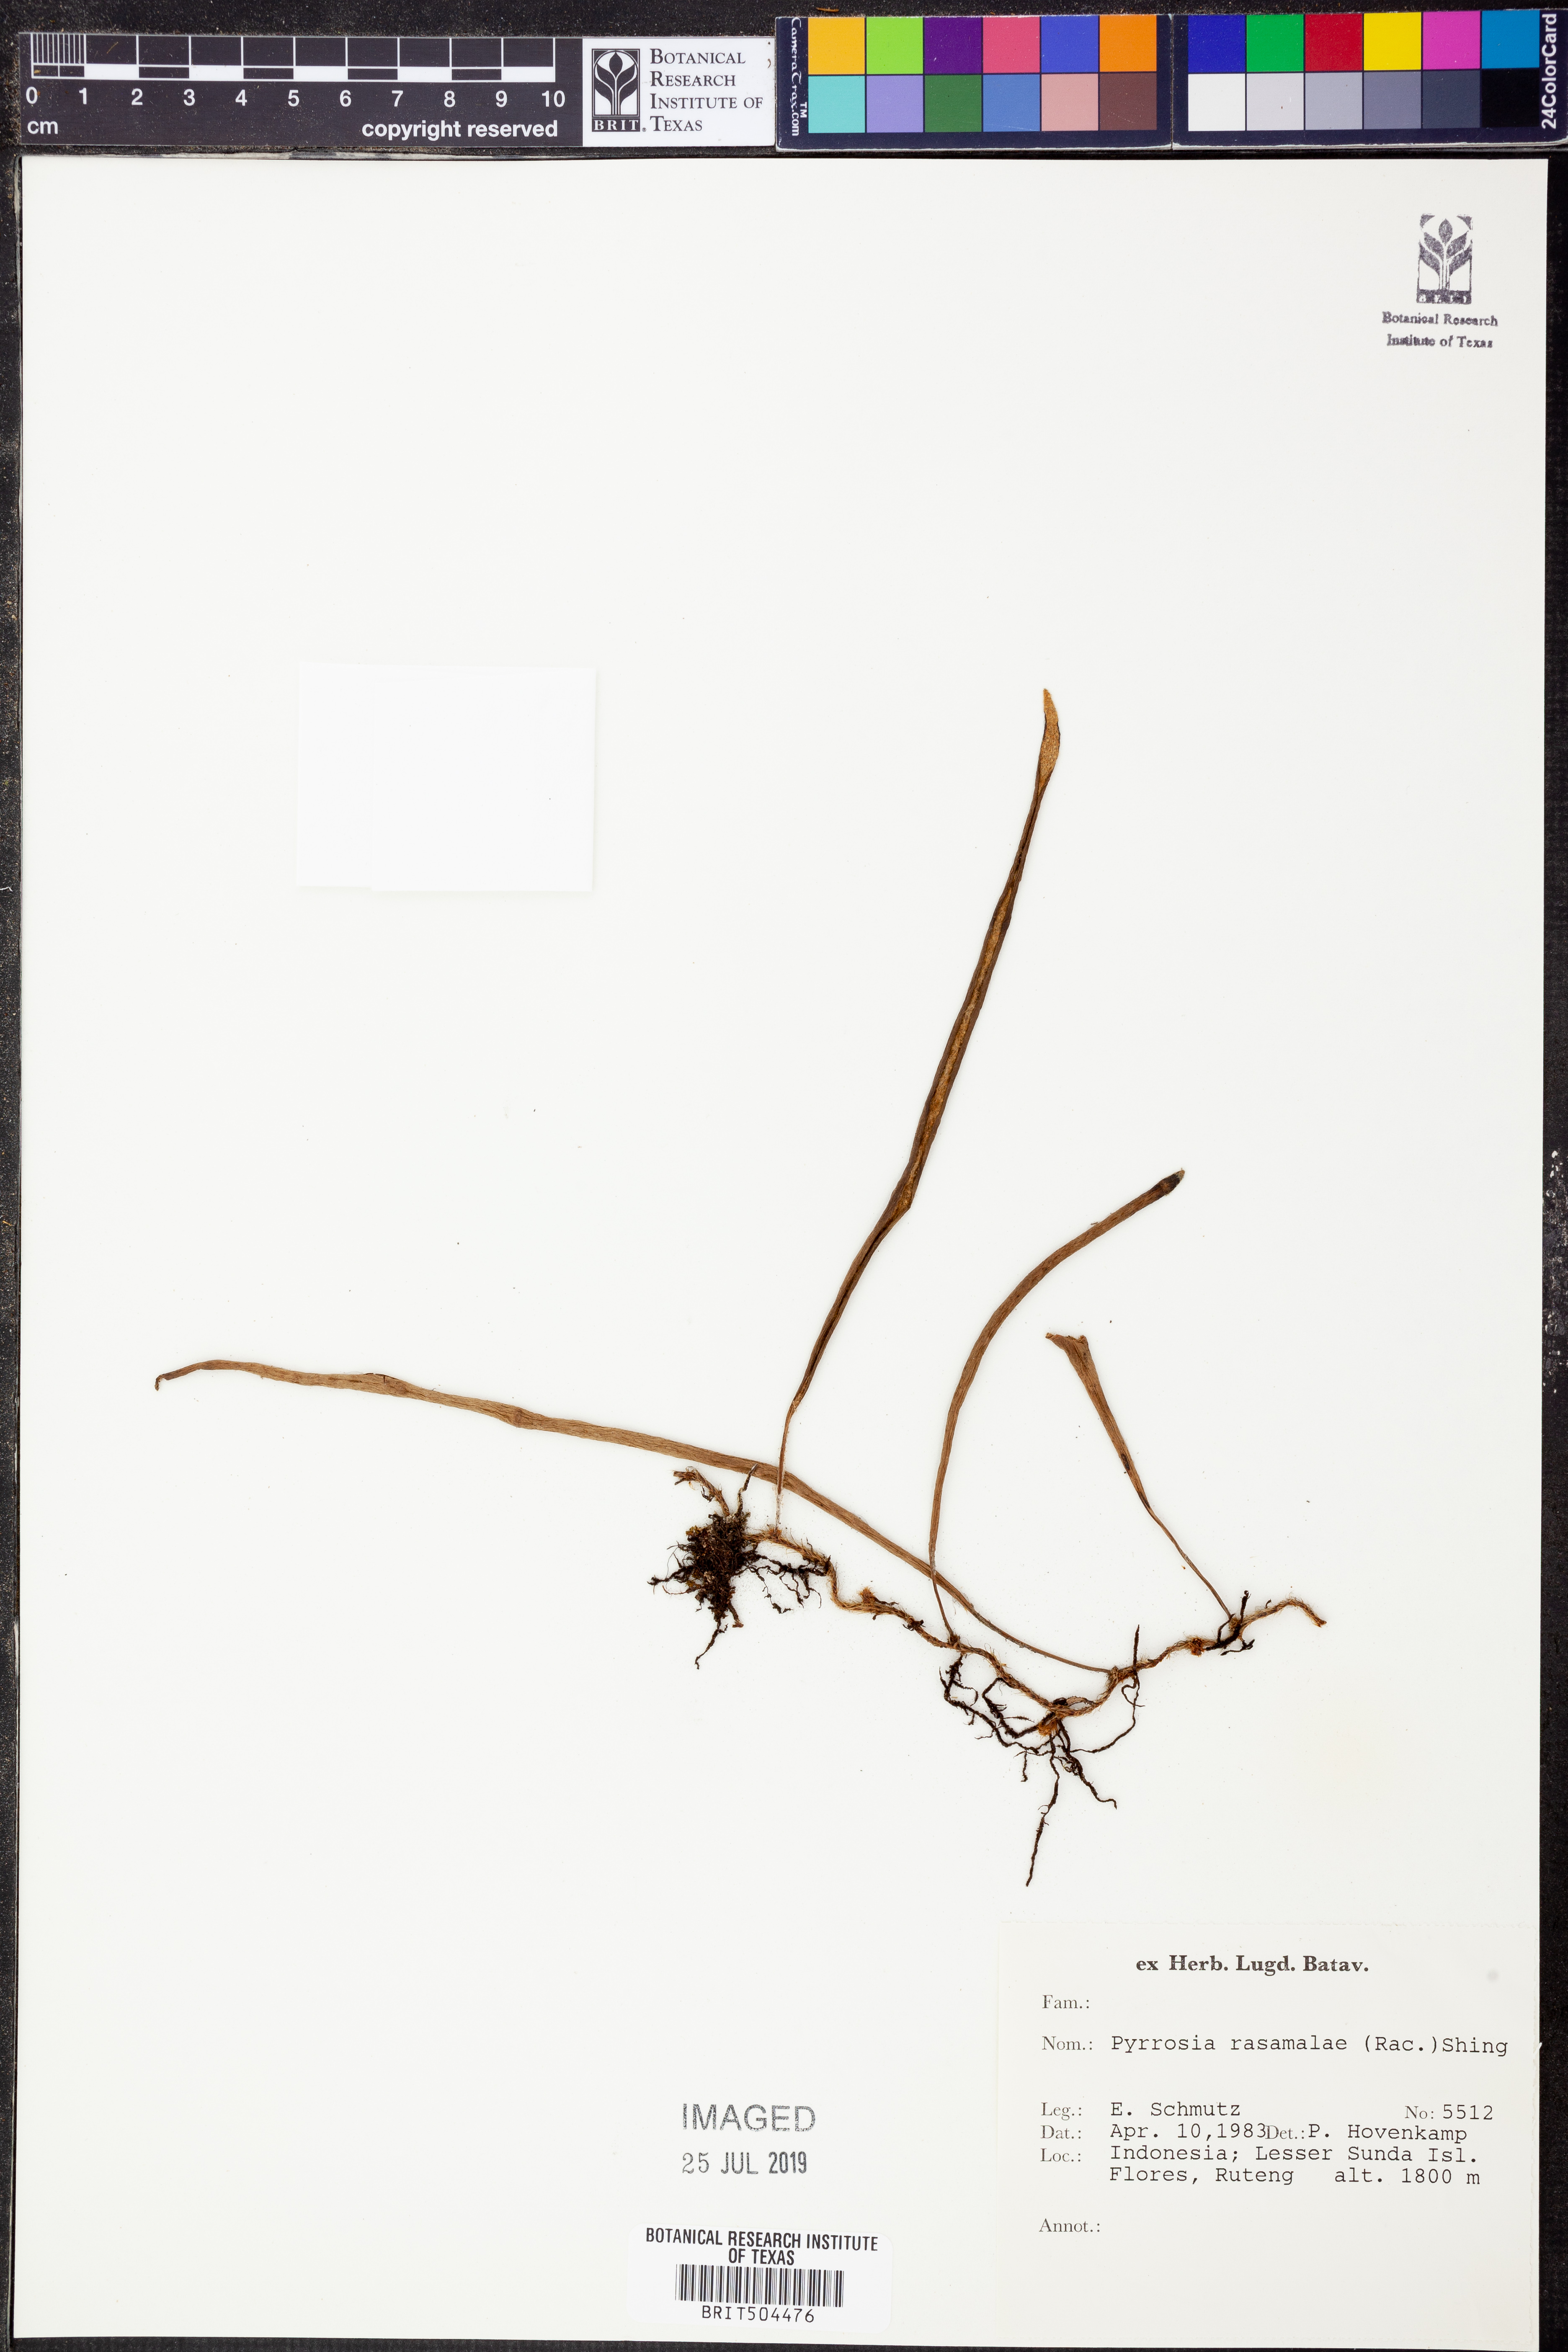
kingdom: Plantae
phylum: Tracheophyta
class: Polypodiopsida
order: Polypodiales
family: Polypodiaceae
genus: Pyrrosia
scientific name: Pyrrosia rasamalae
